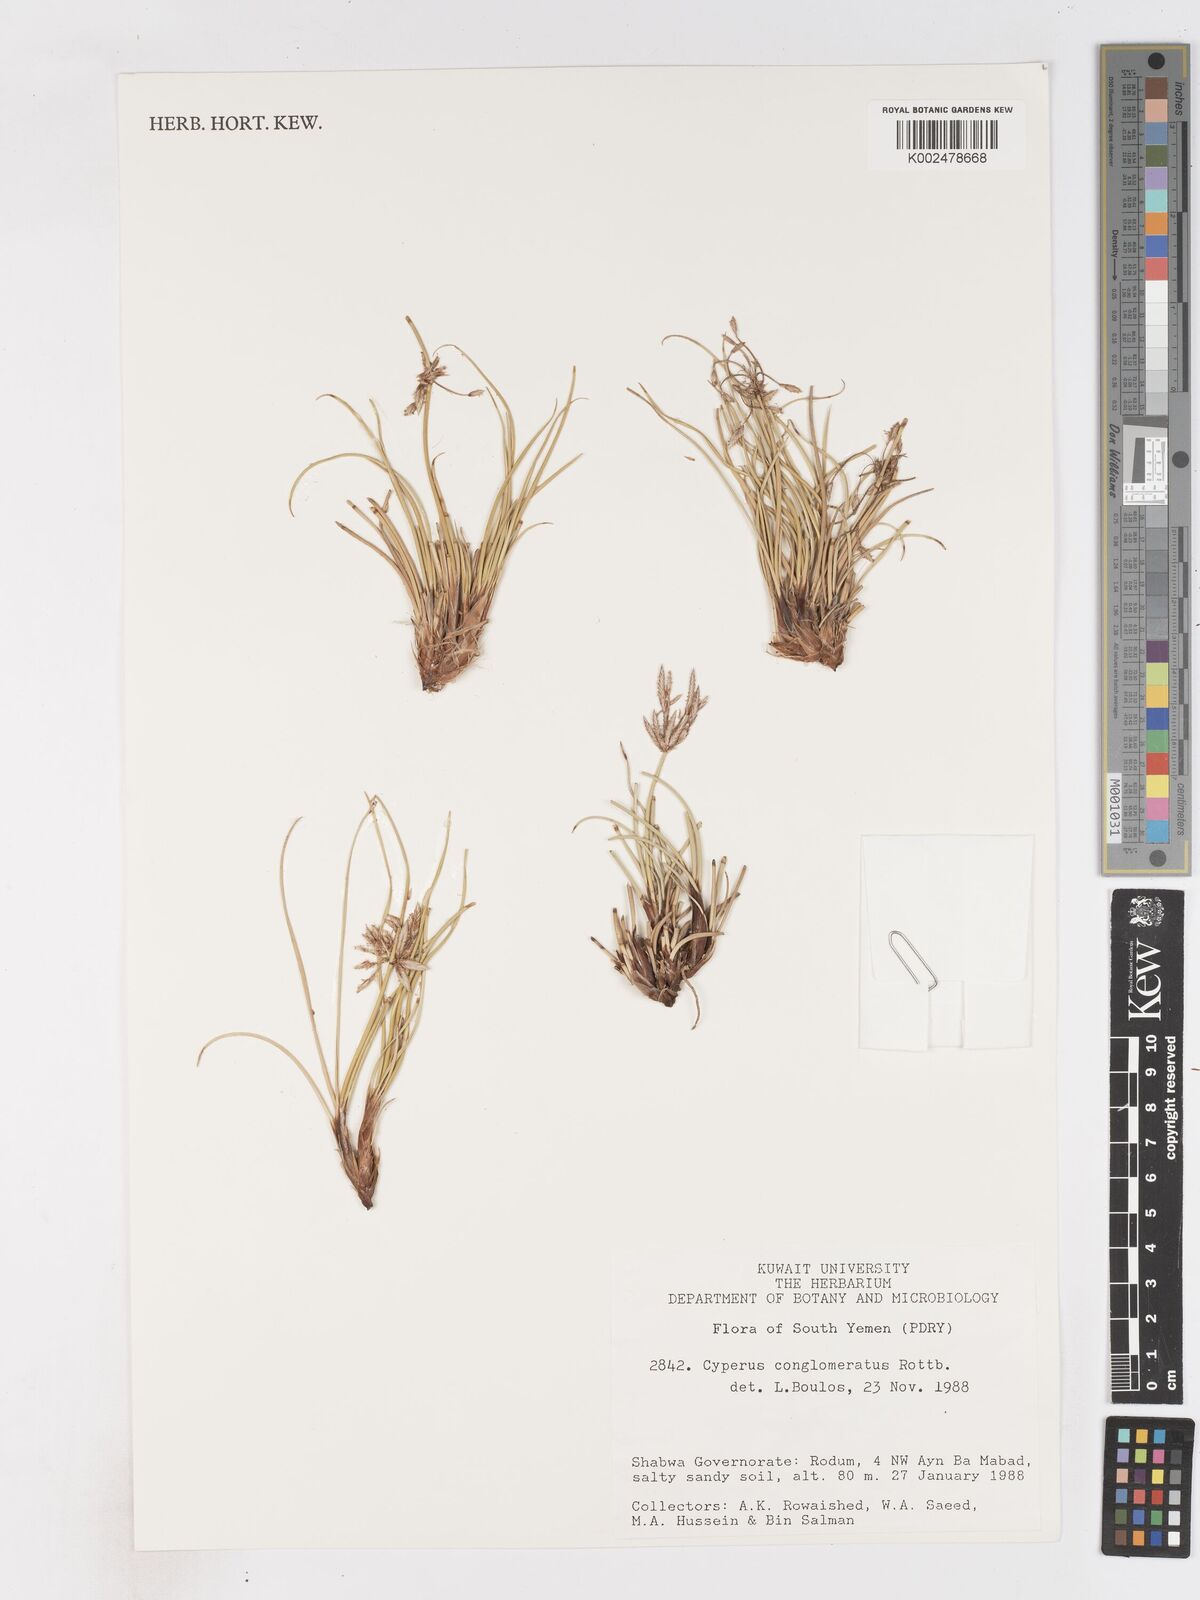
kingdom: Plantae
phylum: Tracheophyta
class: Liliopsida
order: Poales
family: Cyperaceae
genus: Cyperus
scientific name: Cyperus conglomeratus
